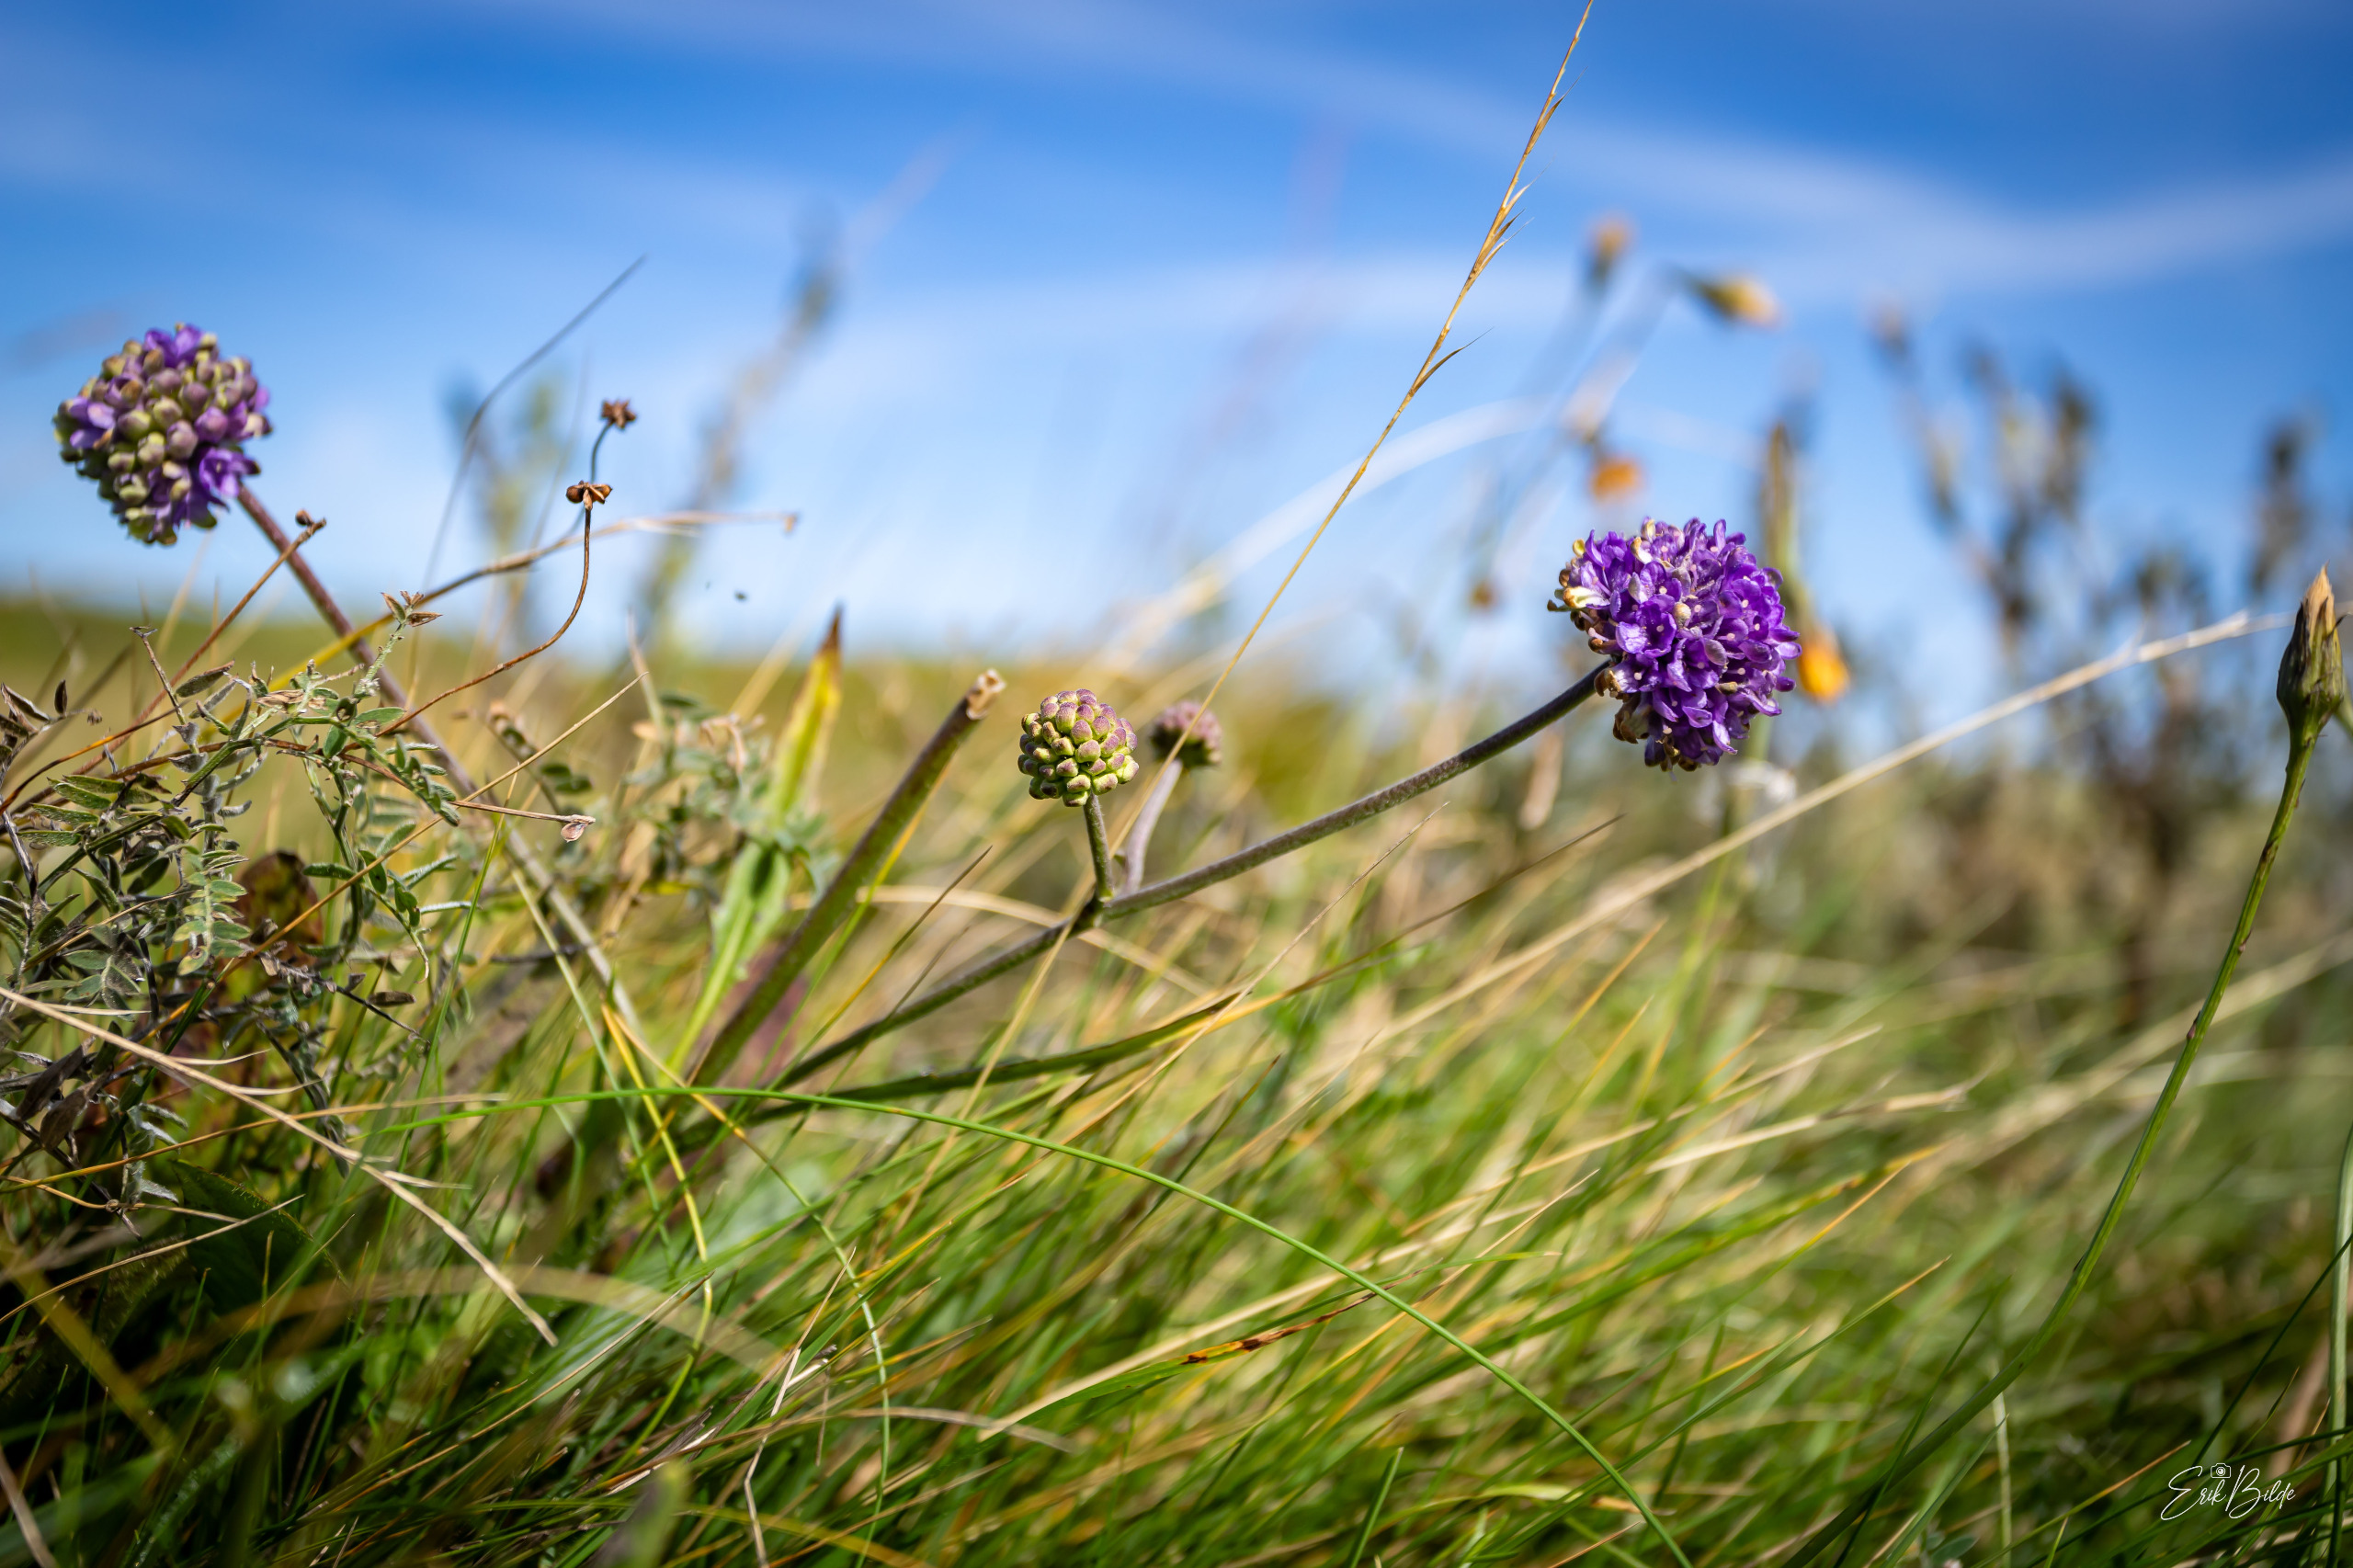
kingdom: Plantae
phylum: Tracheophyta
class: Magnoliopsida
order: Dipsacales
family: Caprifoliaceae
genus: Succisa
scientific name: Succisa pratensis
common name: Djævelsbid
